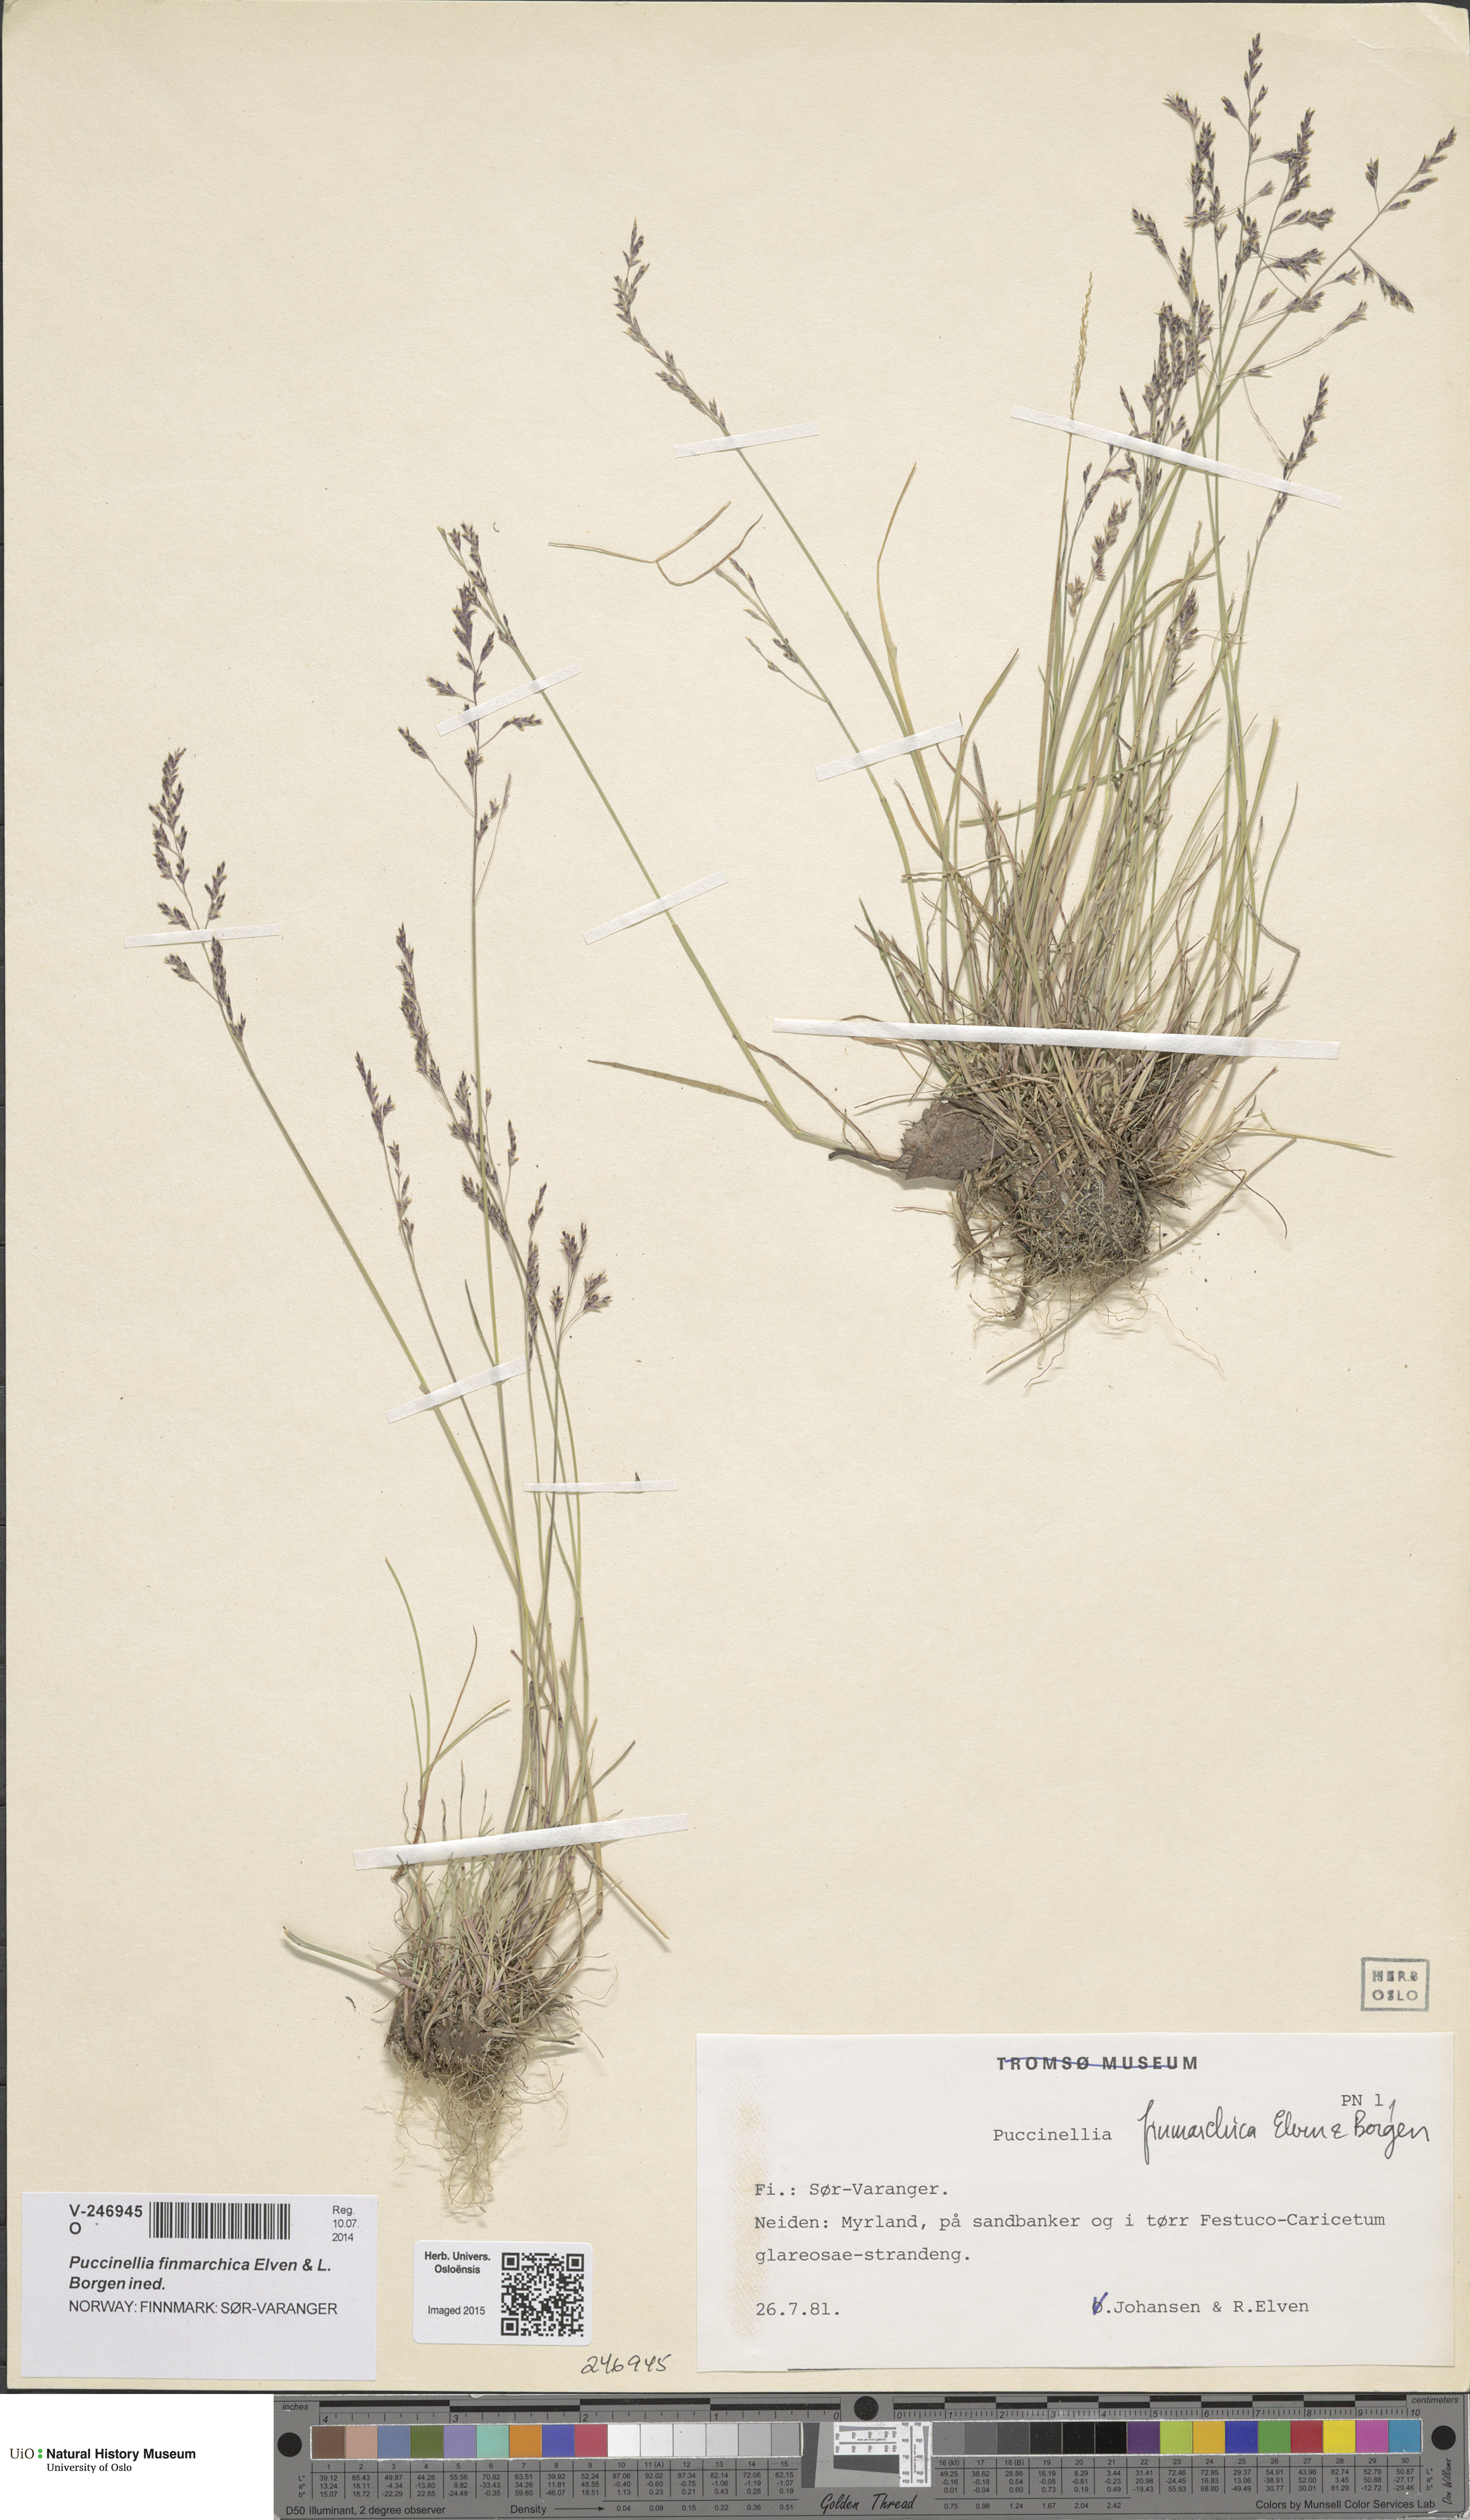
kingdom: Plantae
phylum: Tracheophyta
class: Liliopsida
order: Poales
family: Poaceae
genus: Puccinellia
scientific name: Puccinellia finmarchica
